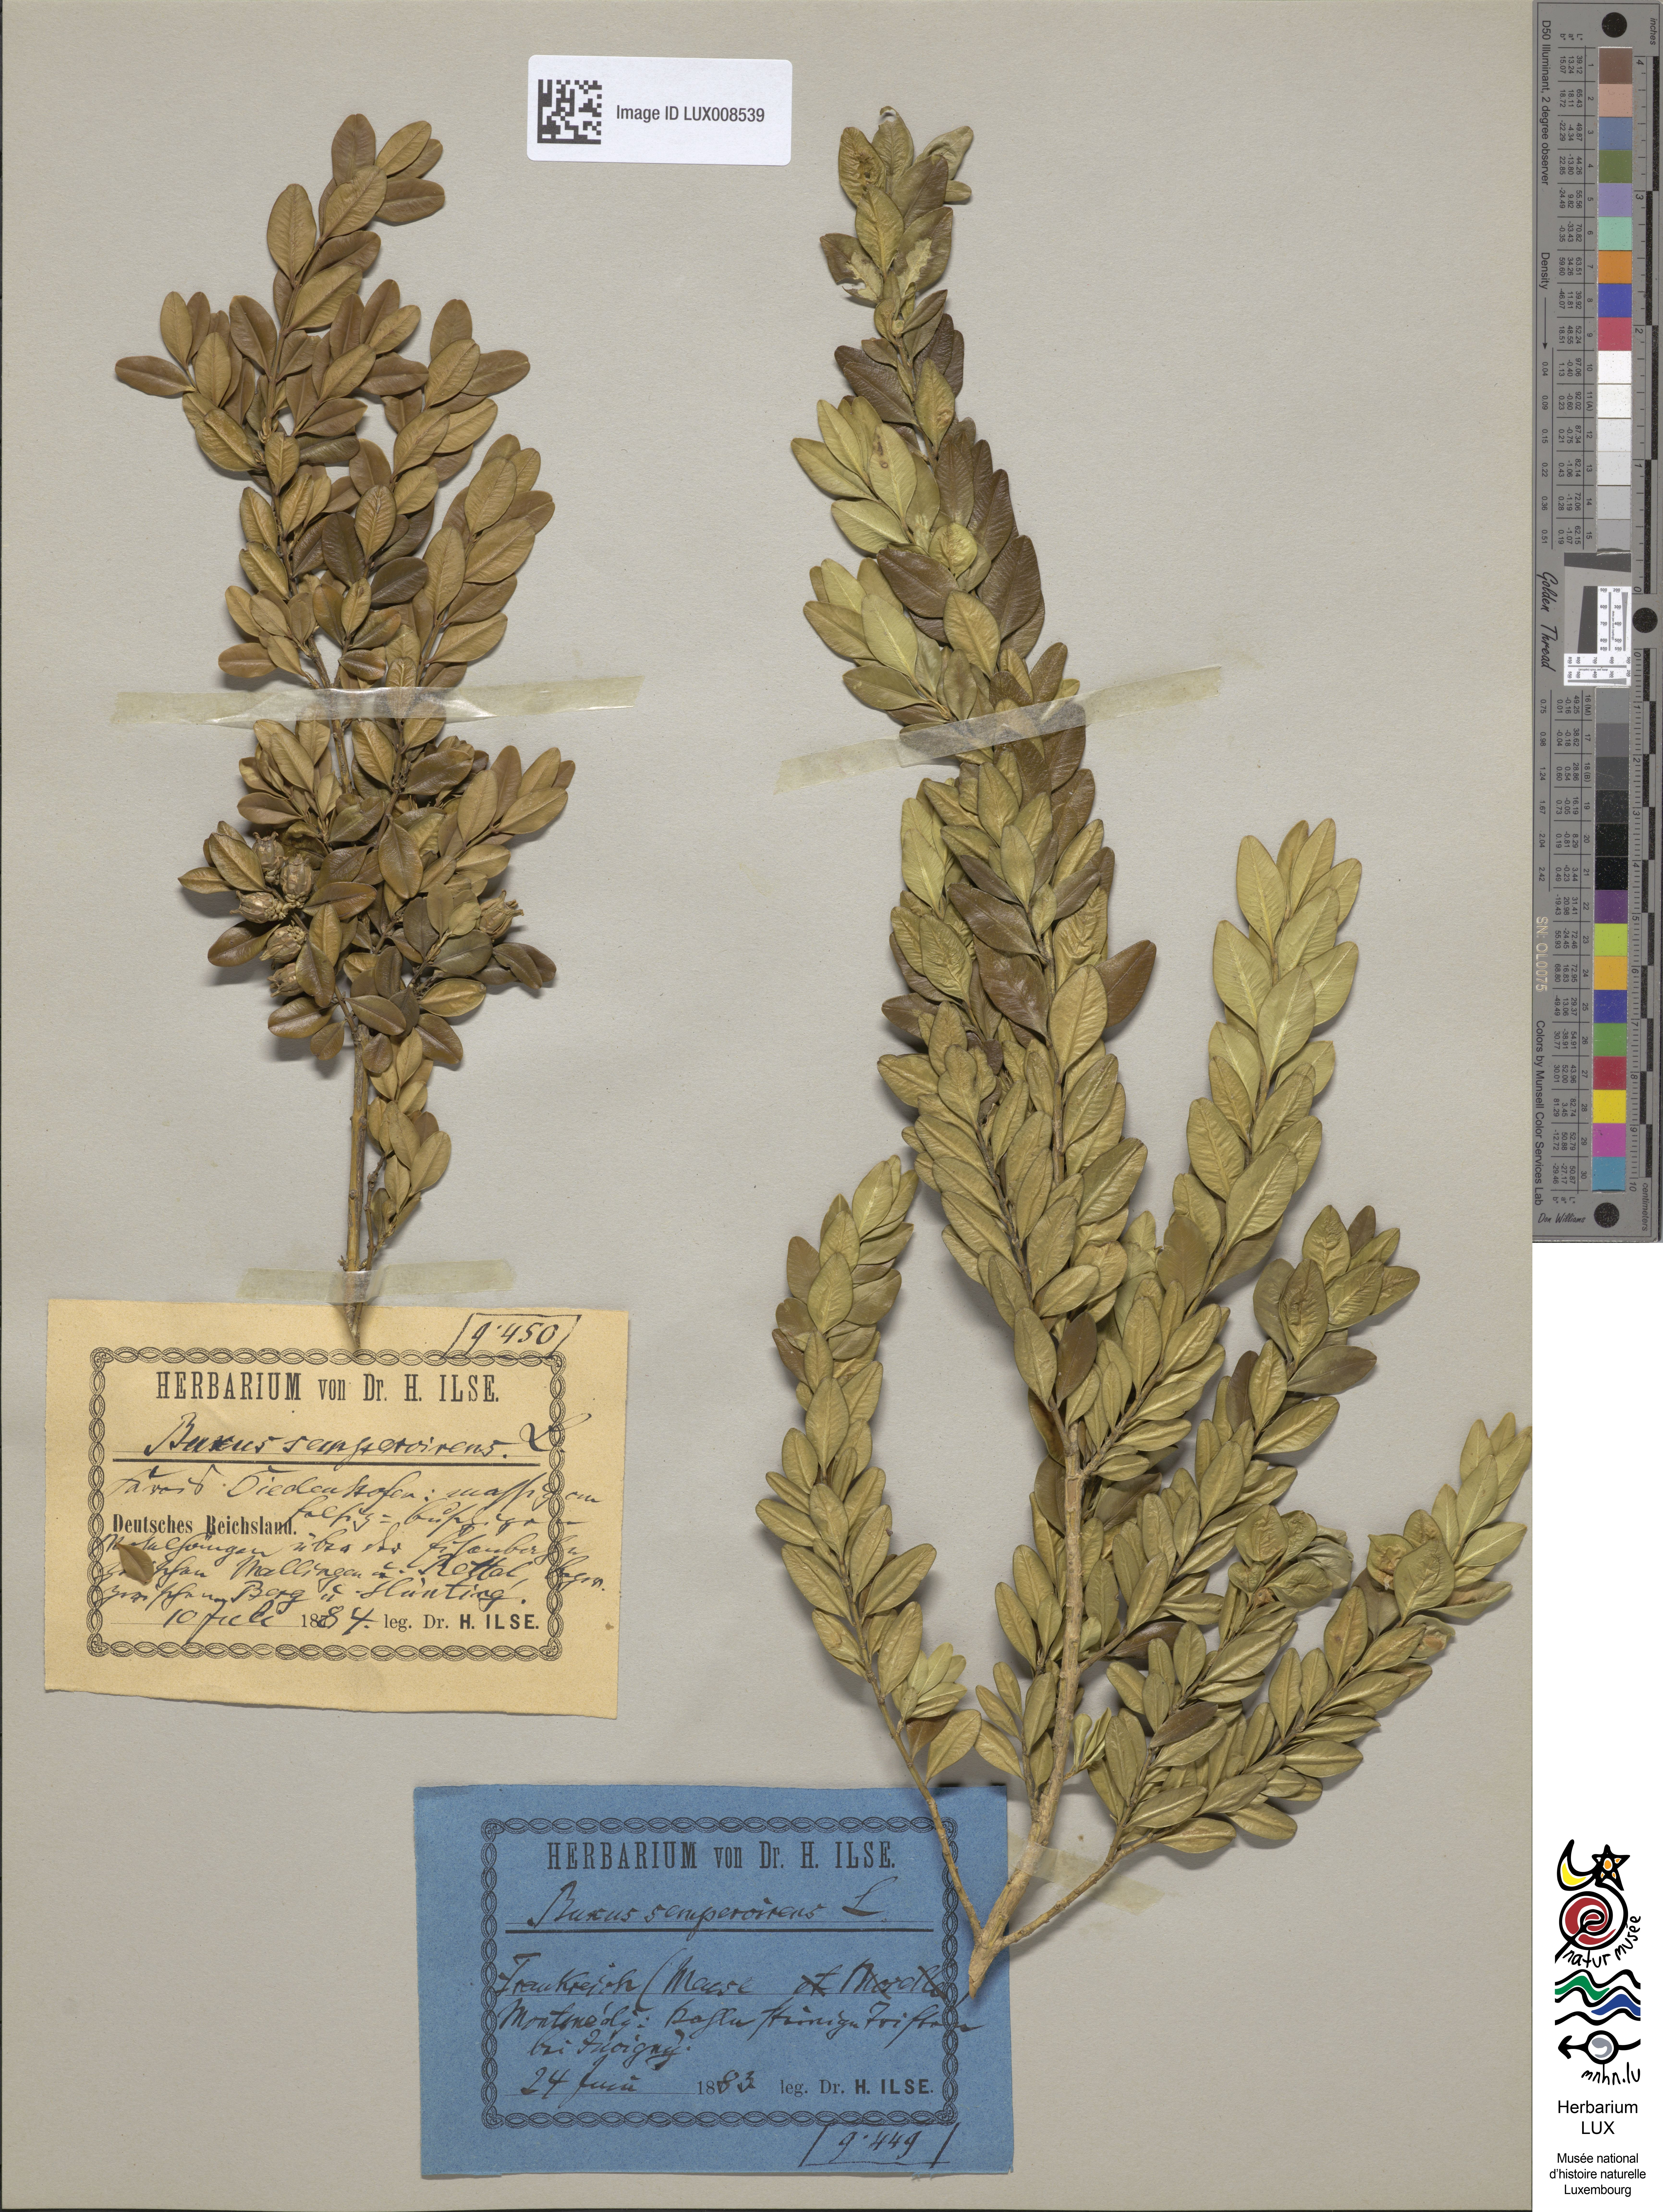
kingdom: Plantae
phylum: Tracheophyta
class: Magnoliopsida
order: Buxales
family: Buxaceae
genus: Buxus
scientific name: Buxus sempervirens
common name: Box
